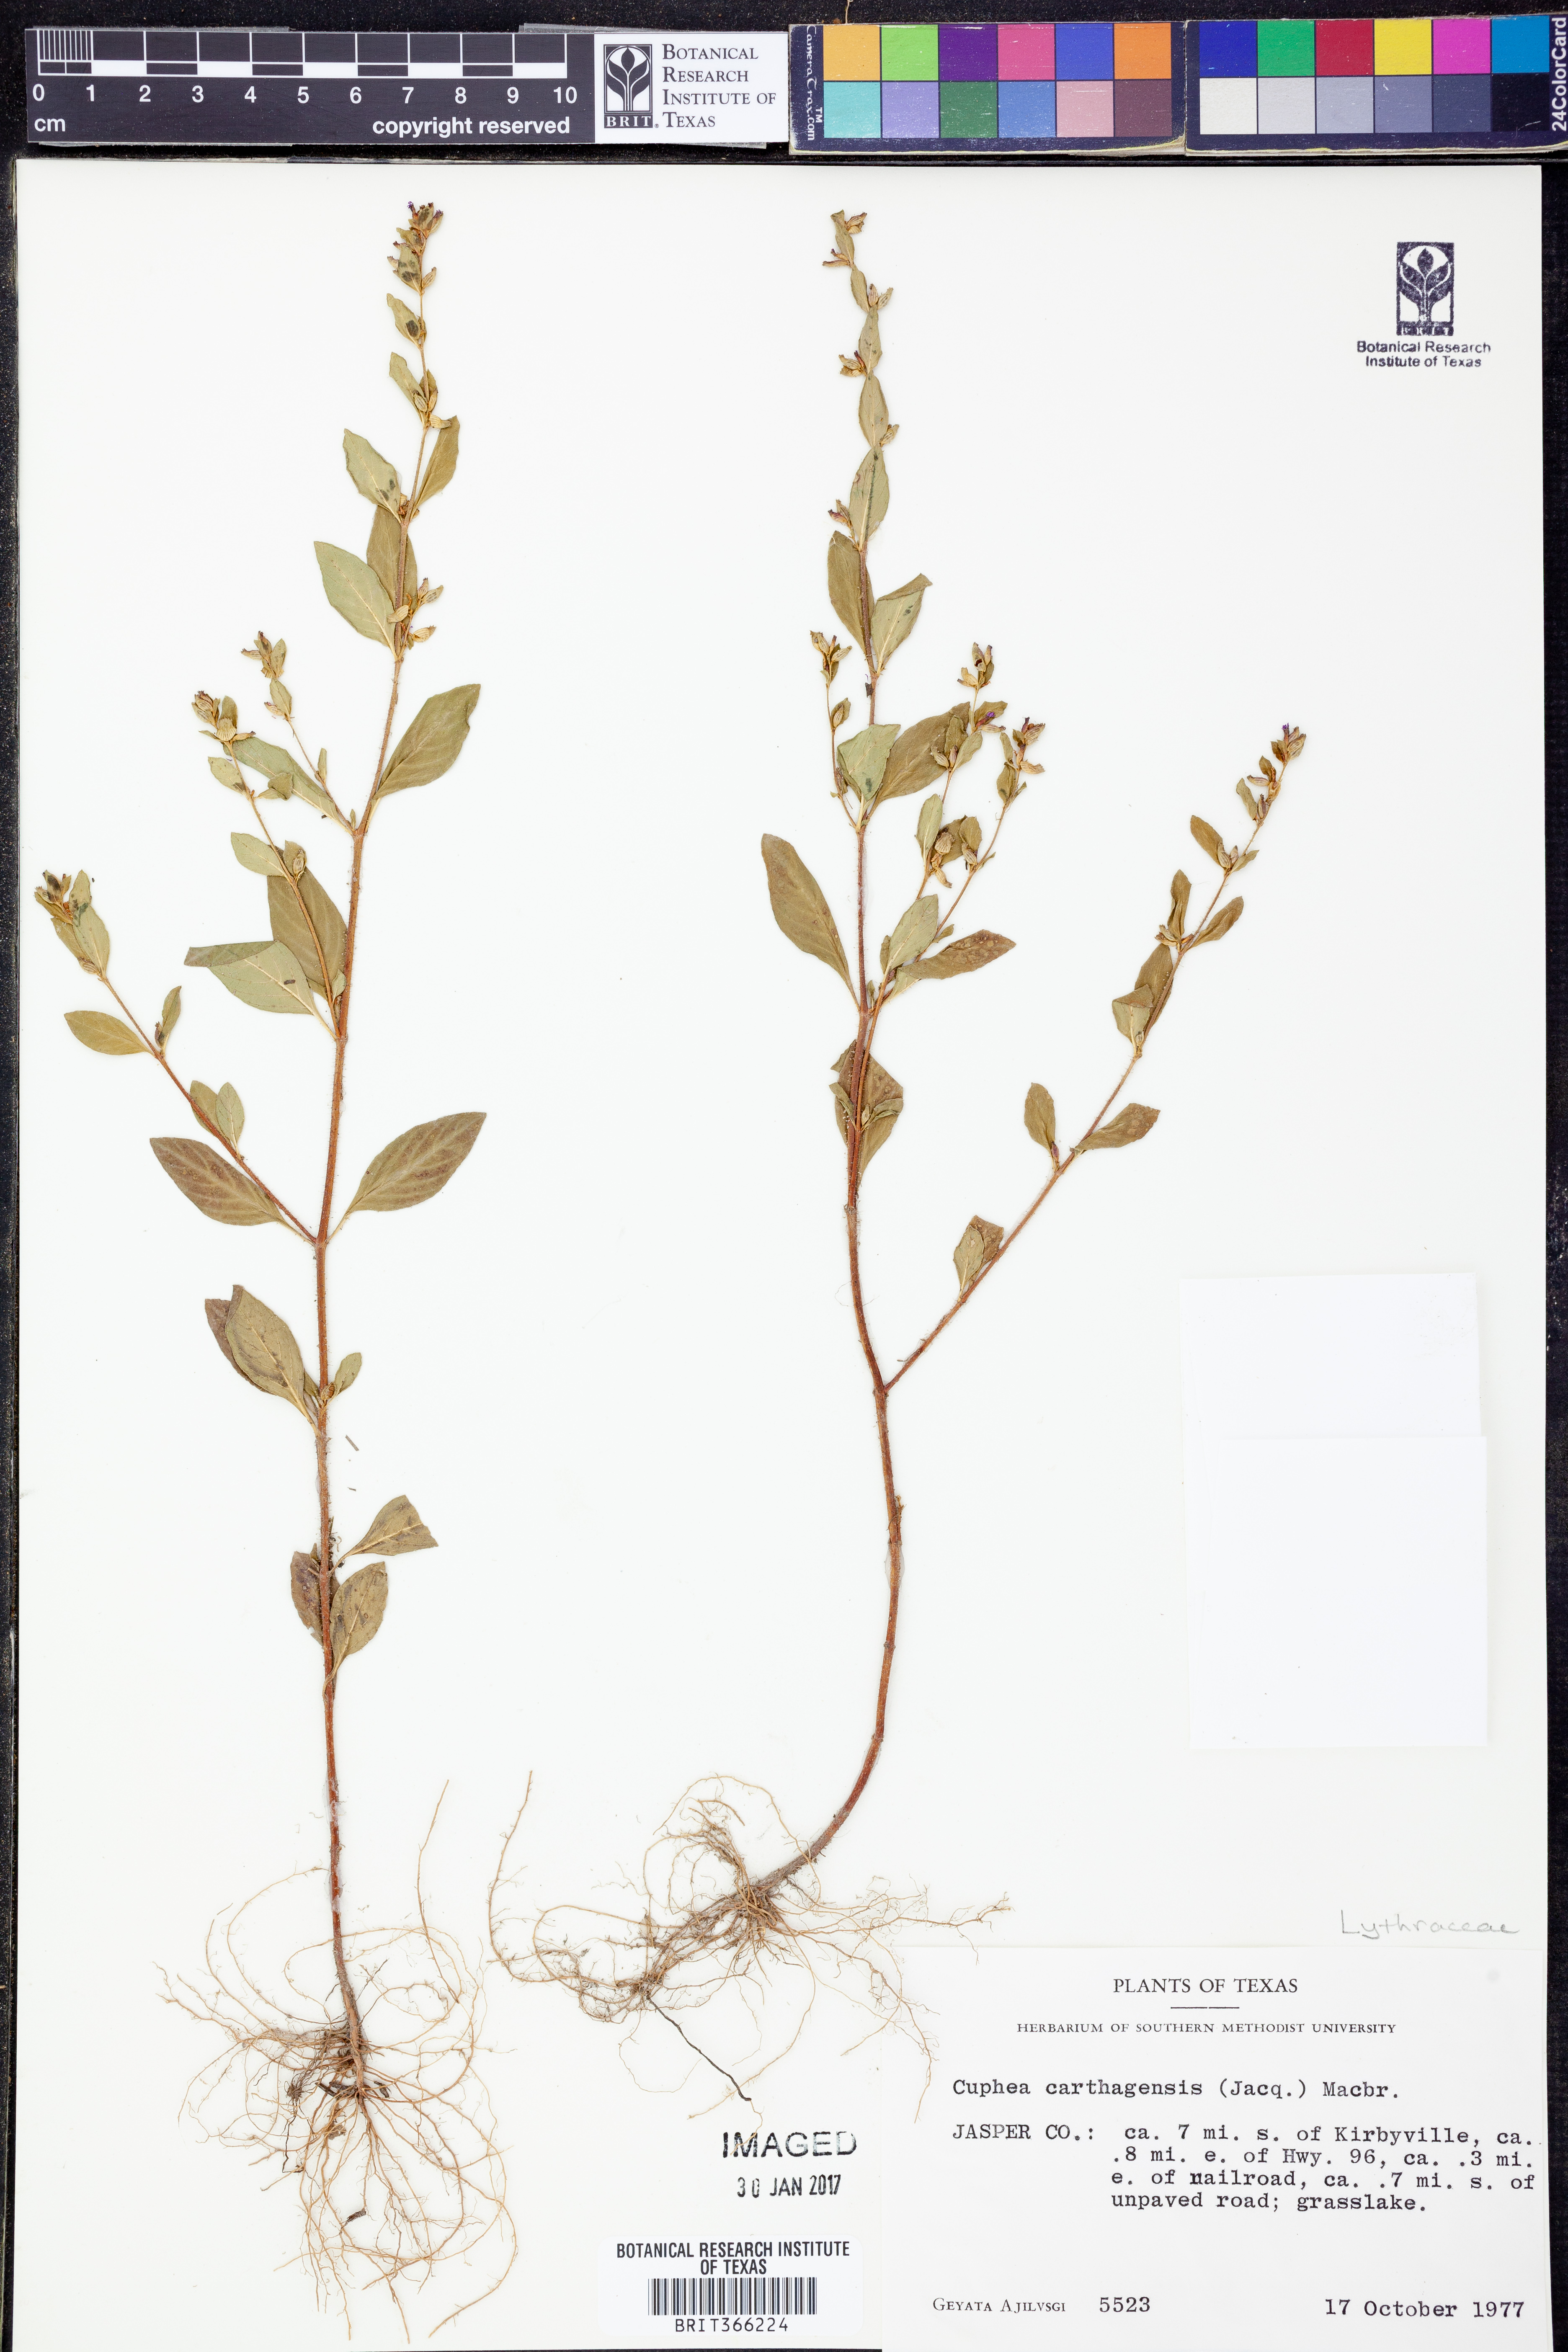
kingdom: Plantae
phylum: Tracheophyta
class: Magnoliopsida
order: Myrtales
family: Lythraceae
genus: Cuphea
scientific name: Cuphea carthagenensis
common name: Colombian waxweed
